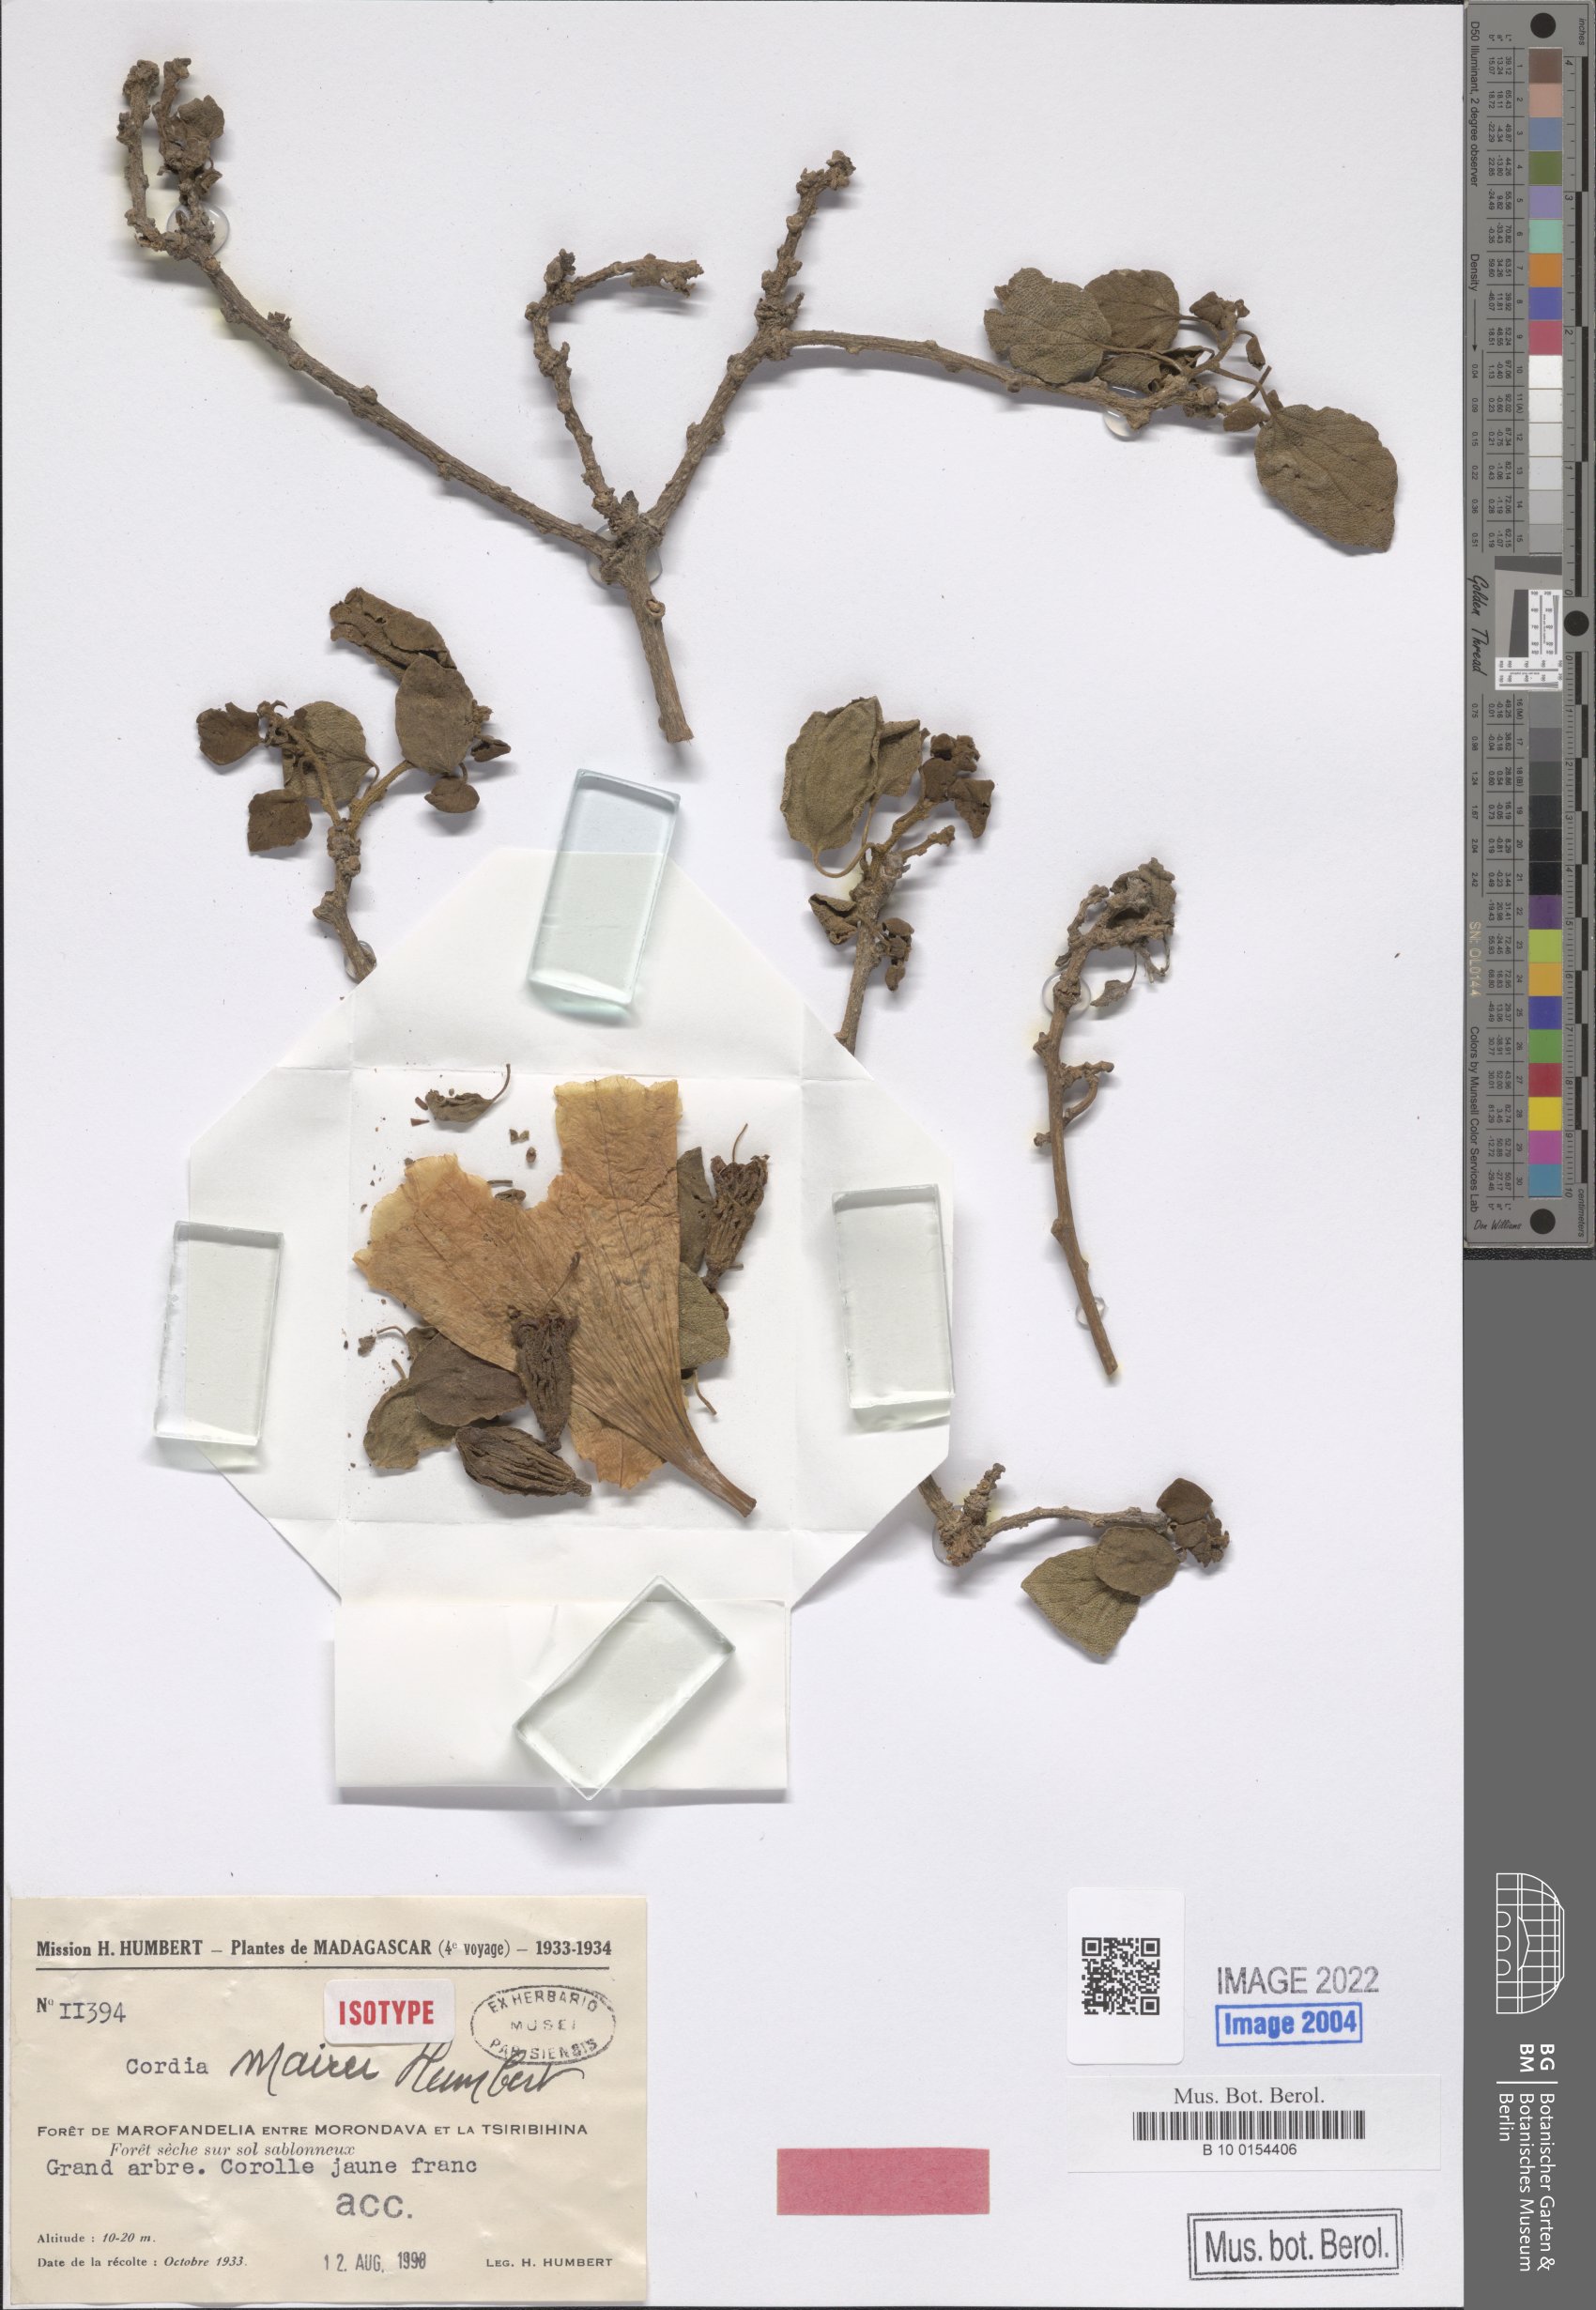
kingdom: Plantae
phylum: Tracheophyta
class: Magnoliopsida
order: Boraginales
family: Cordiaceae
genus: Cordia
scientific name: Cordia mairei
